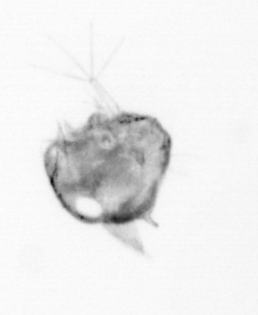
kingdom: Animalia
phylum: Arthropoda
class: Copepoda
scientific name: Copepoda
